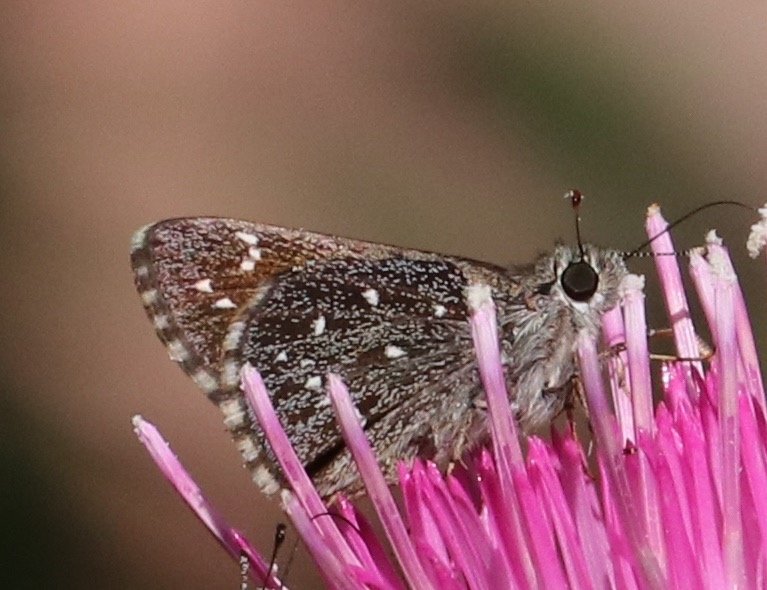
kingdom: Animalia
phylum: Arthropoda
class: Insecta
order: Lepidoptera
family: Hesperiidae
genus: Mastor
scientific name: Mastor exoteria
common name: Large Roadside-Skipper
